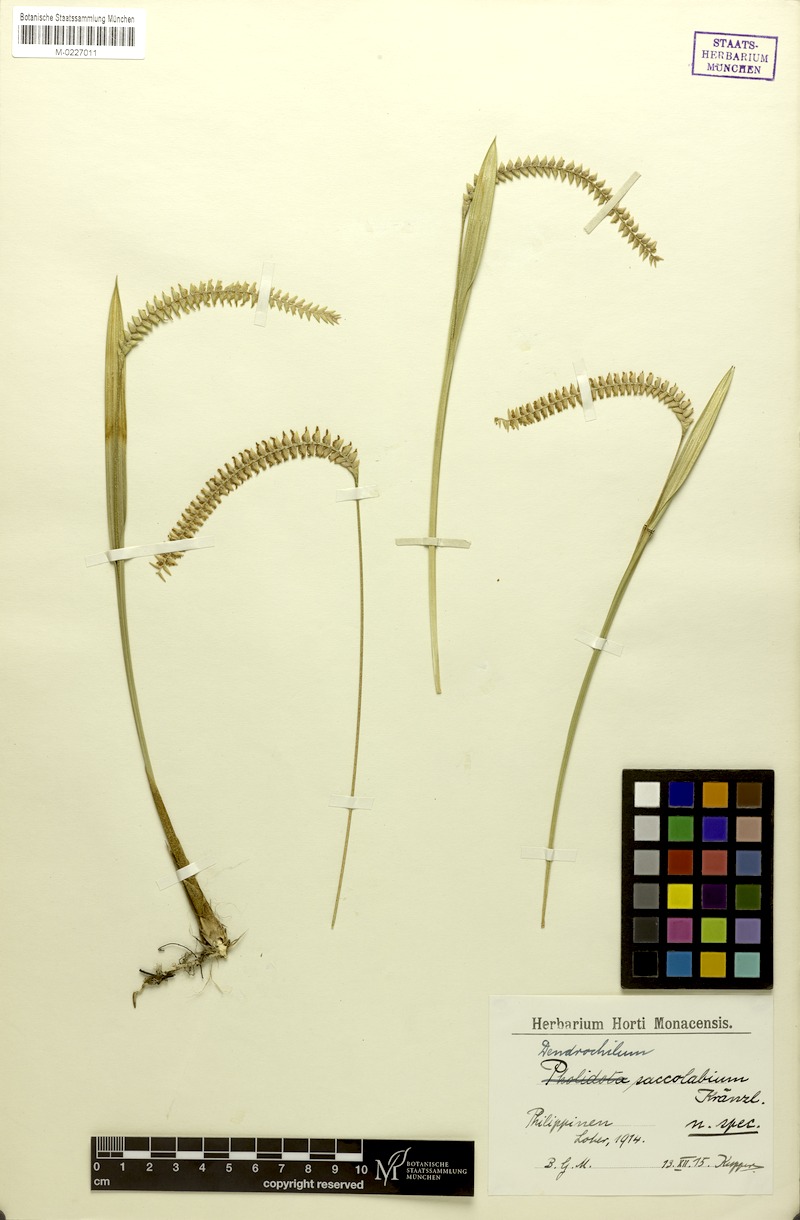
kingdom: Plantae
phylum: Tracheophyta
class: Liliopsida
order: Asparagales
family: Orchidaceae
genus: Coelogyne
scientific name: Coelogyne saccolabium
